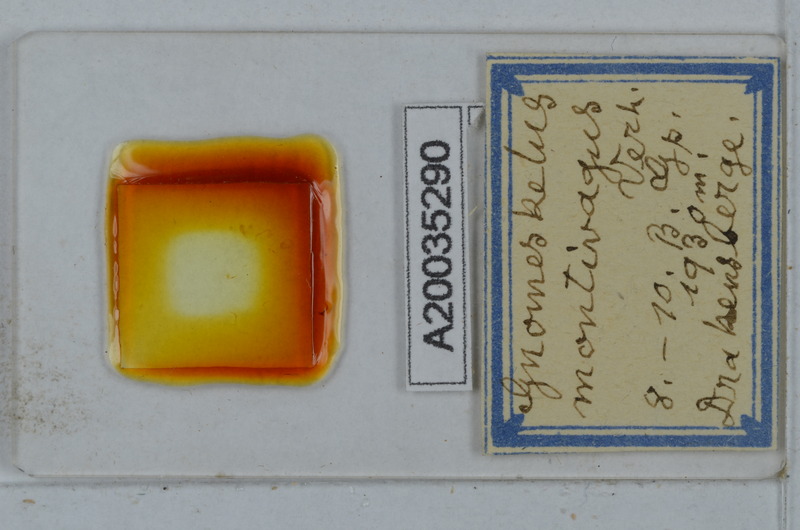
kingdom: Animalia
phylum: Arthropoda
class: Diplopoda
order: Polydesmida
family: Dalodesmidae
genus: Gnomeskelus
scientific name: Gnomeskelus montivagus
